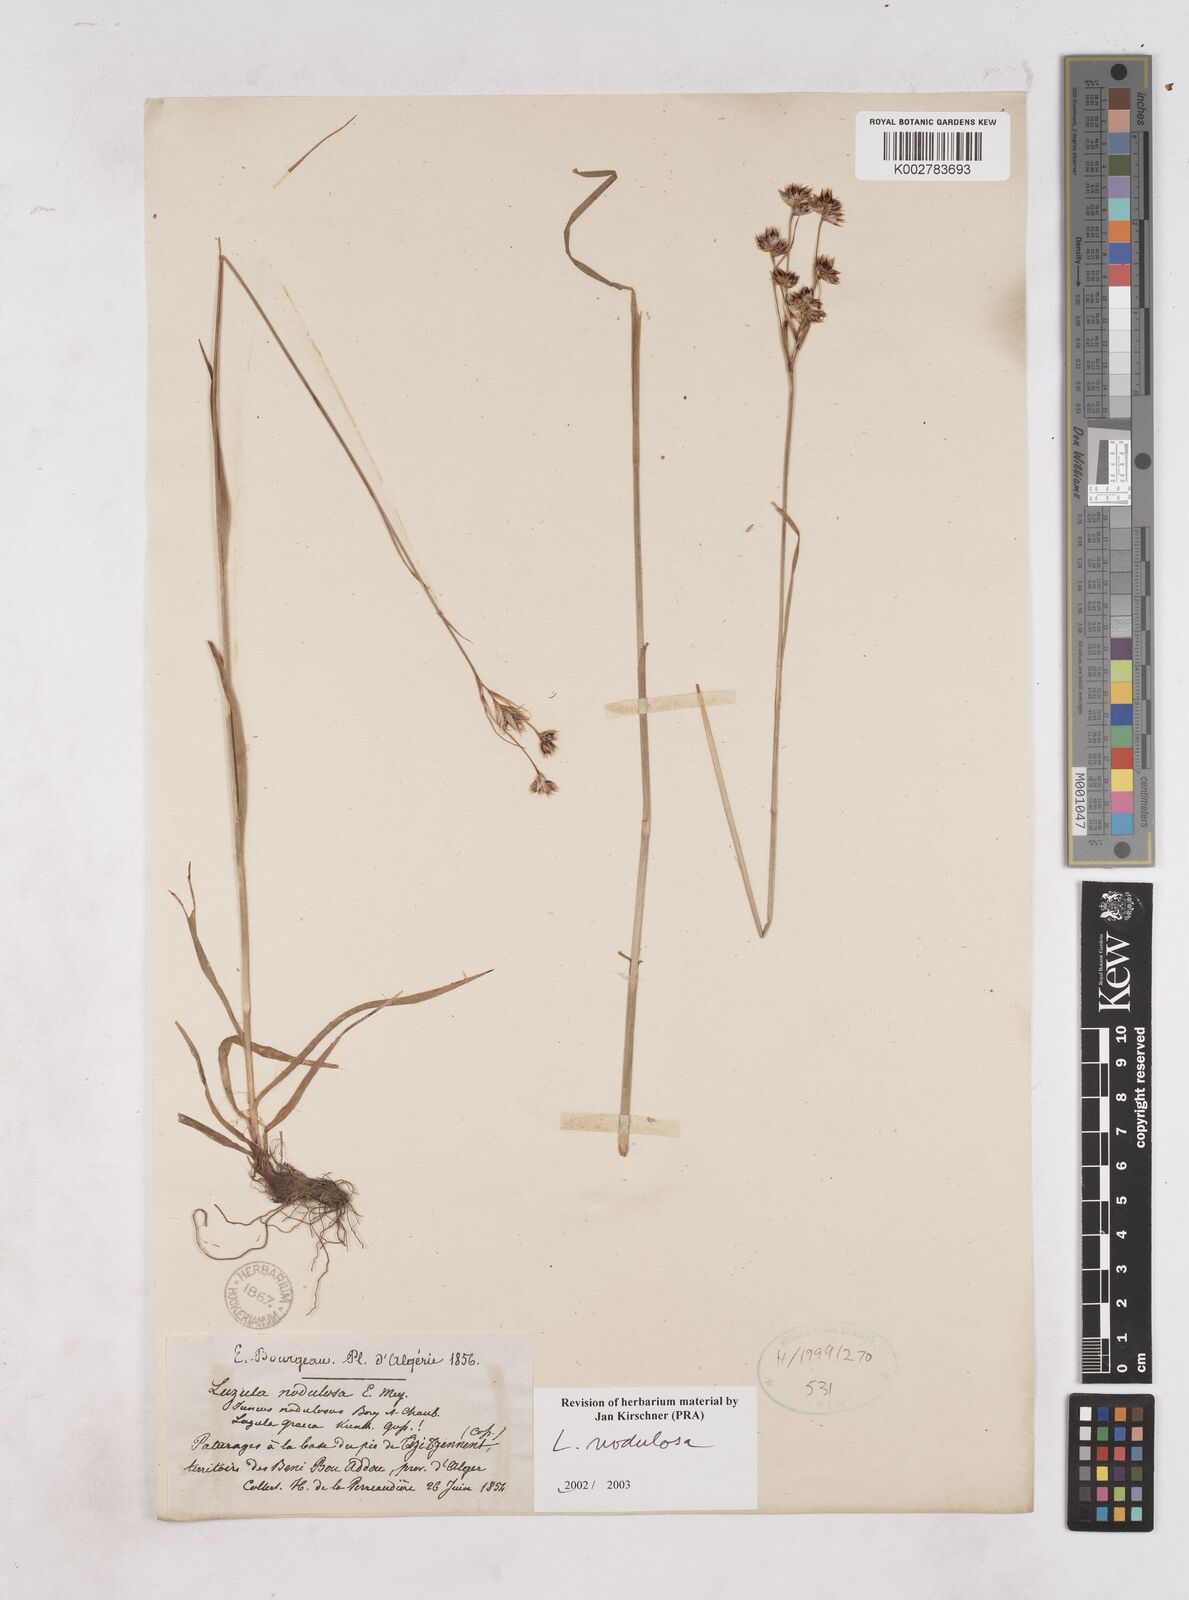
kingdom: Plantae
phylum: Tracheophyta
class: Liliopsida
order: Poales
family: Juncaceae
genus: Luzula
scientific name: Luzula nodulosa
